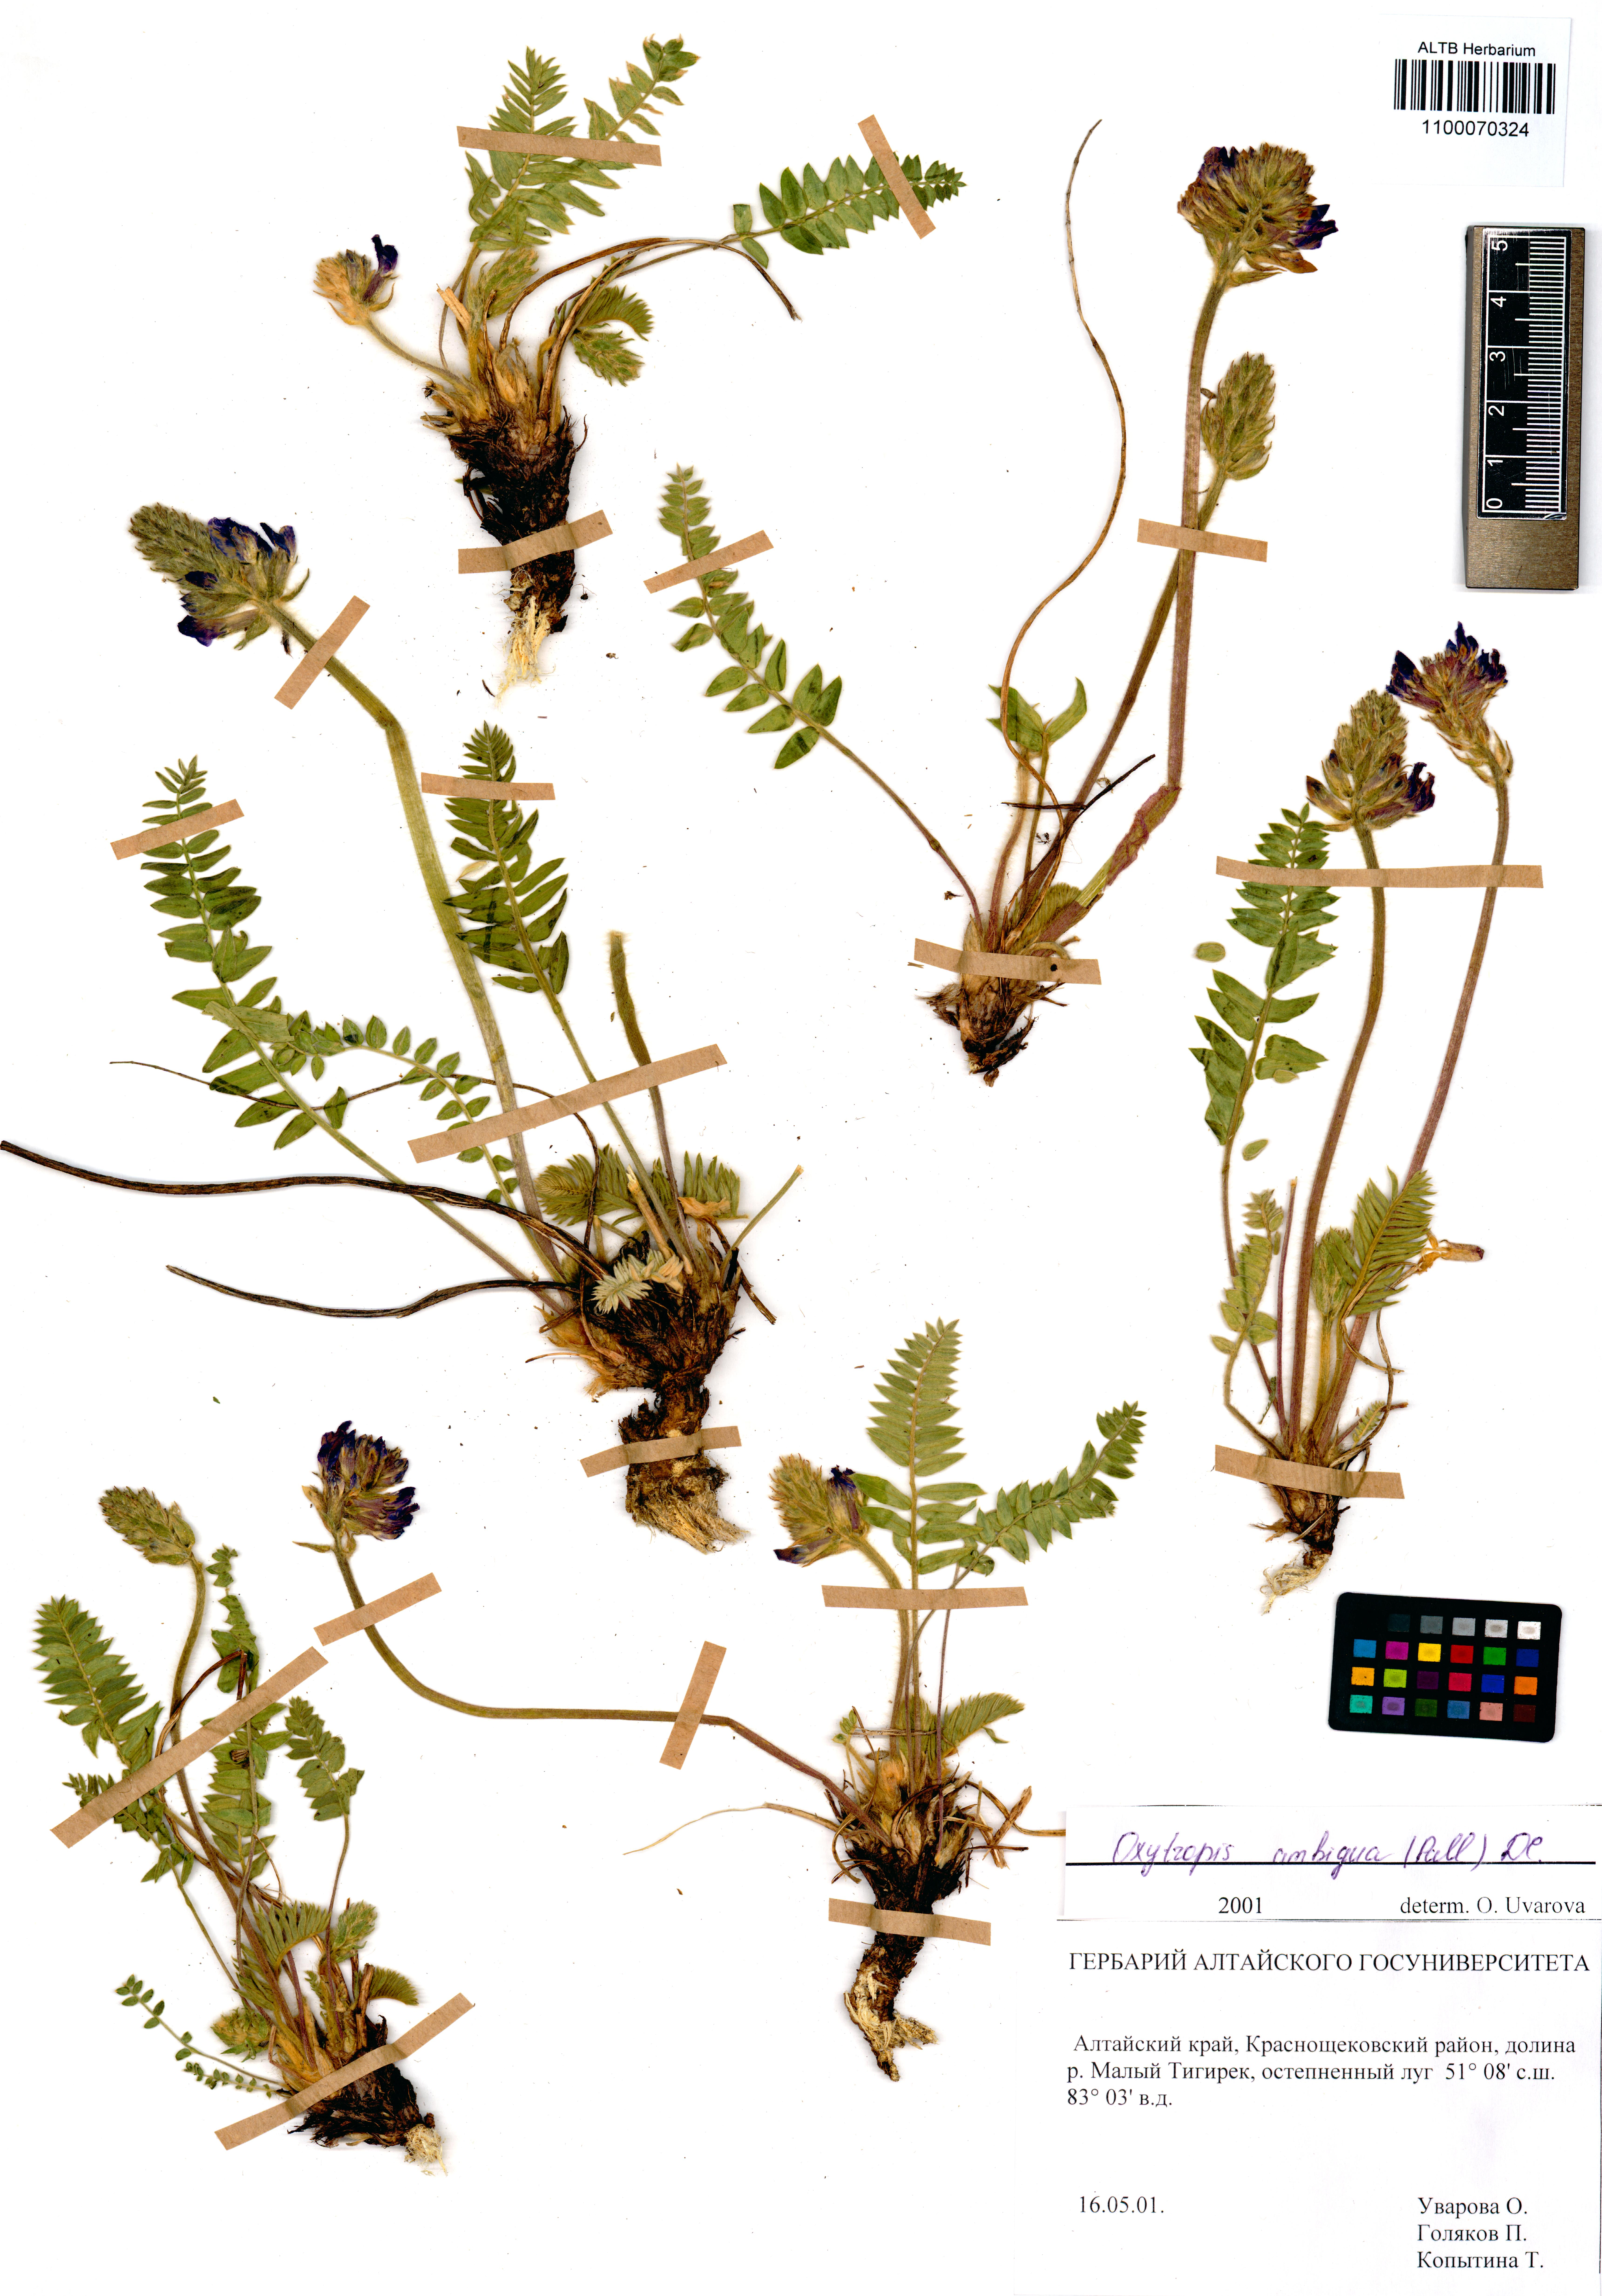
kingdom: Plantae
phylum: Tracheophyta
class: Magnoliopsida
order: Fabales
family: Fabaceae
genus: Oxytropis
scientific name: Oxytropis ambigua
